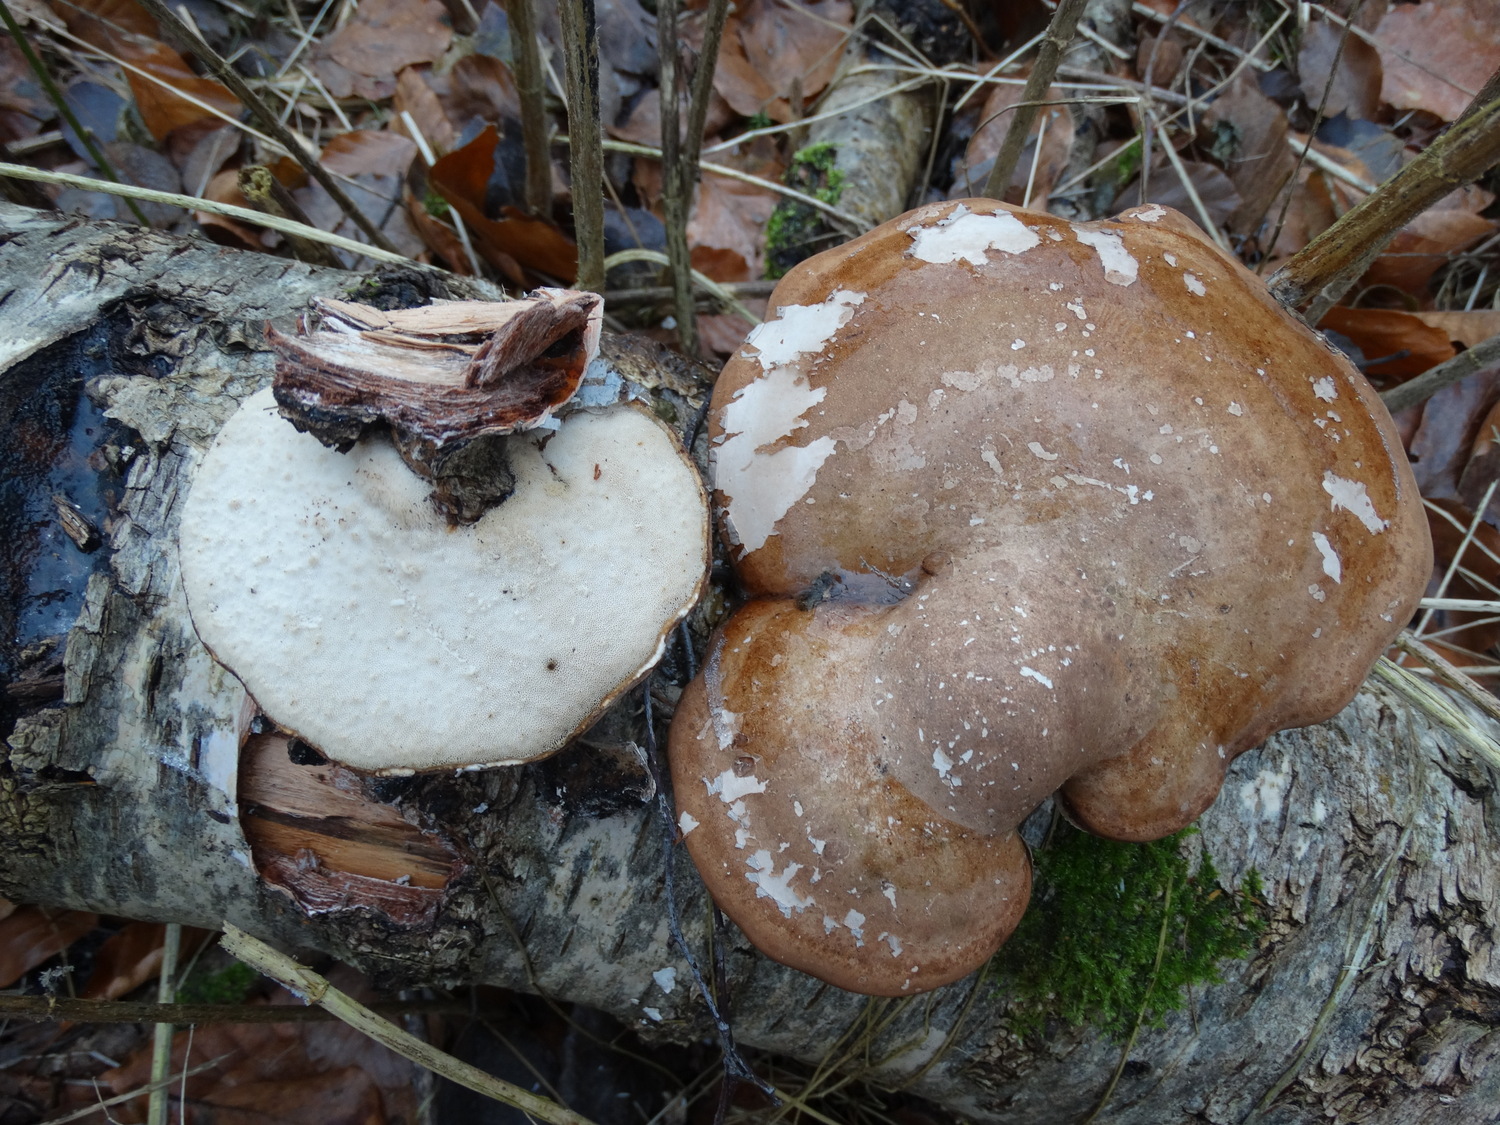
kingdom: Fungi
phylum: Basidiomycota
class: Agaricomycetes
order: Polyporales
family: Fomitopsidaceae
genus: Fomitopsis
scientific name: Fomitopsis betulina
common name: birkeporesvamp
